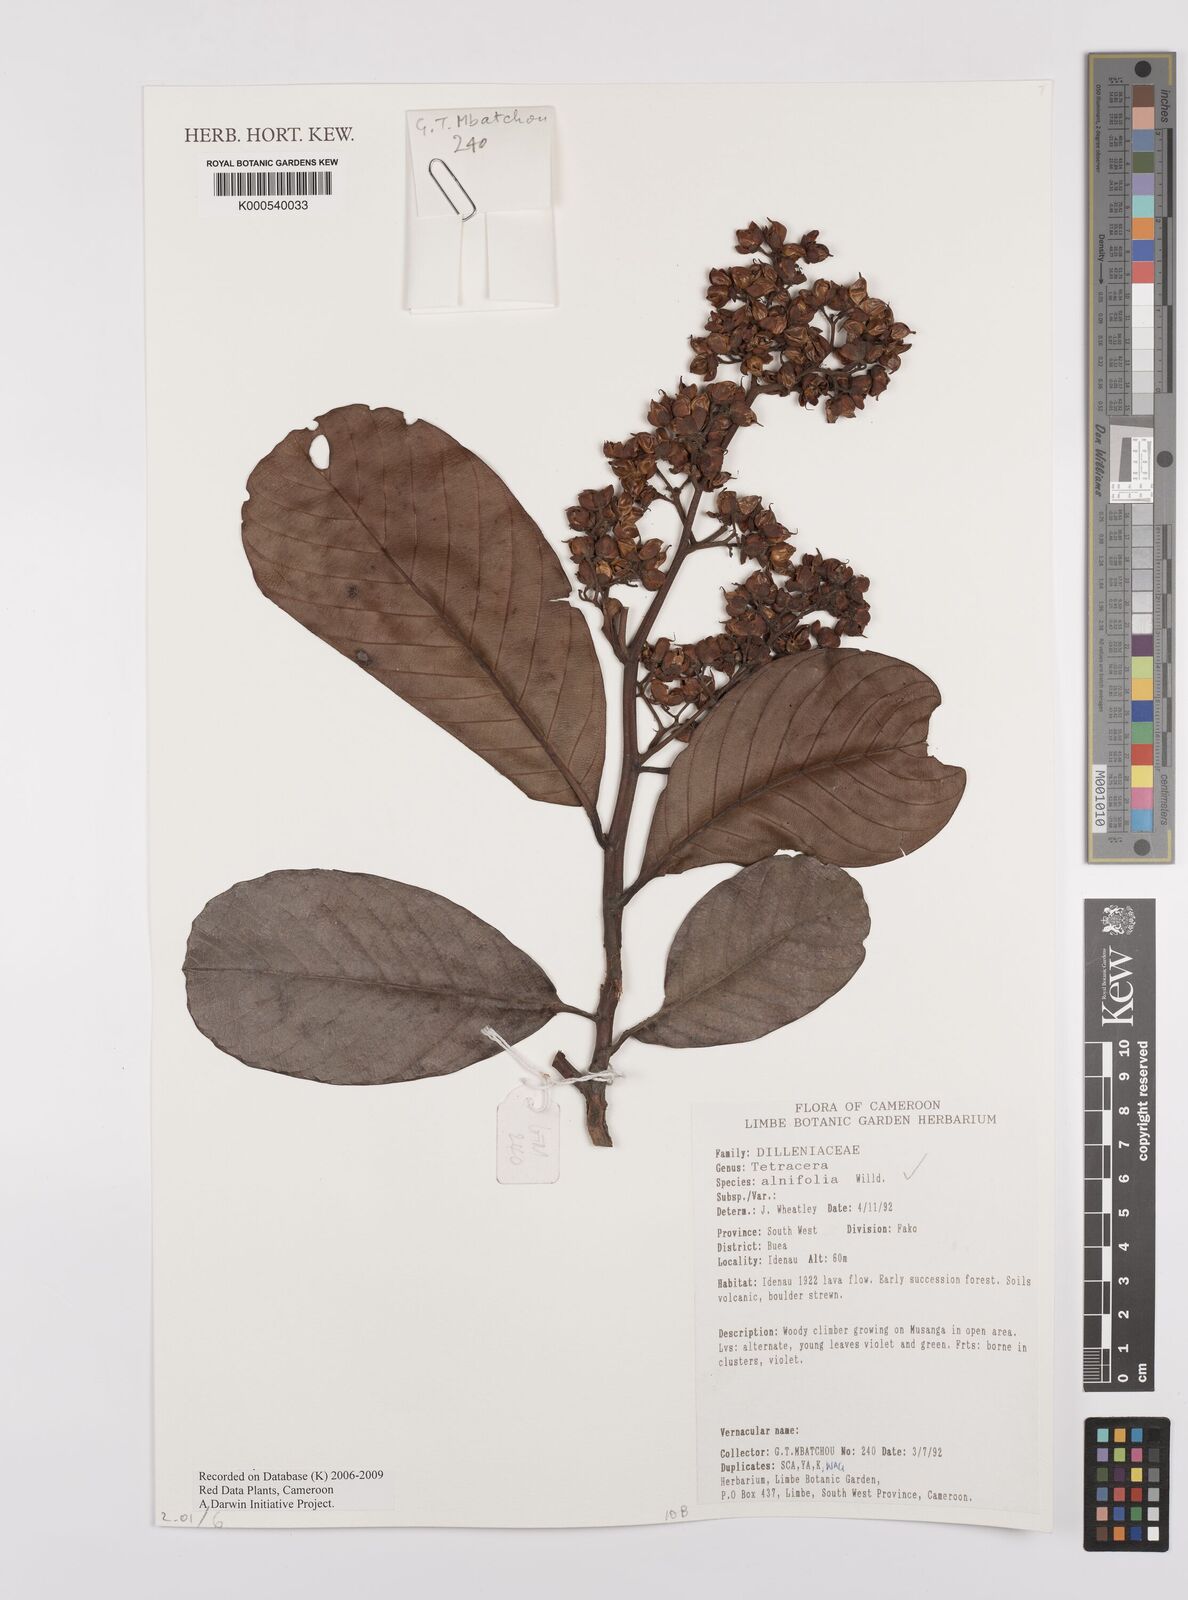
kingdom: Plantae
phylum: Tracheophyta
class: Magnoliopsida
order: Dilleniales
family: Dilleniaceae
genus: Tetracera
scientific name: Tetracera alnifolia
